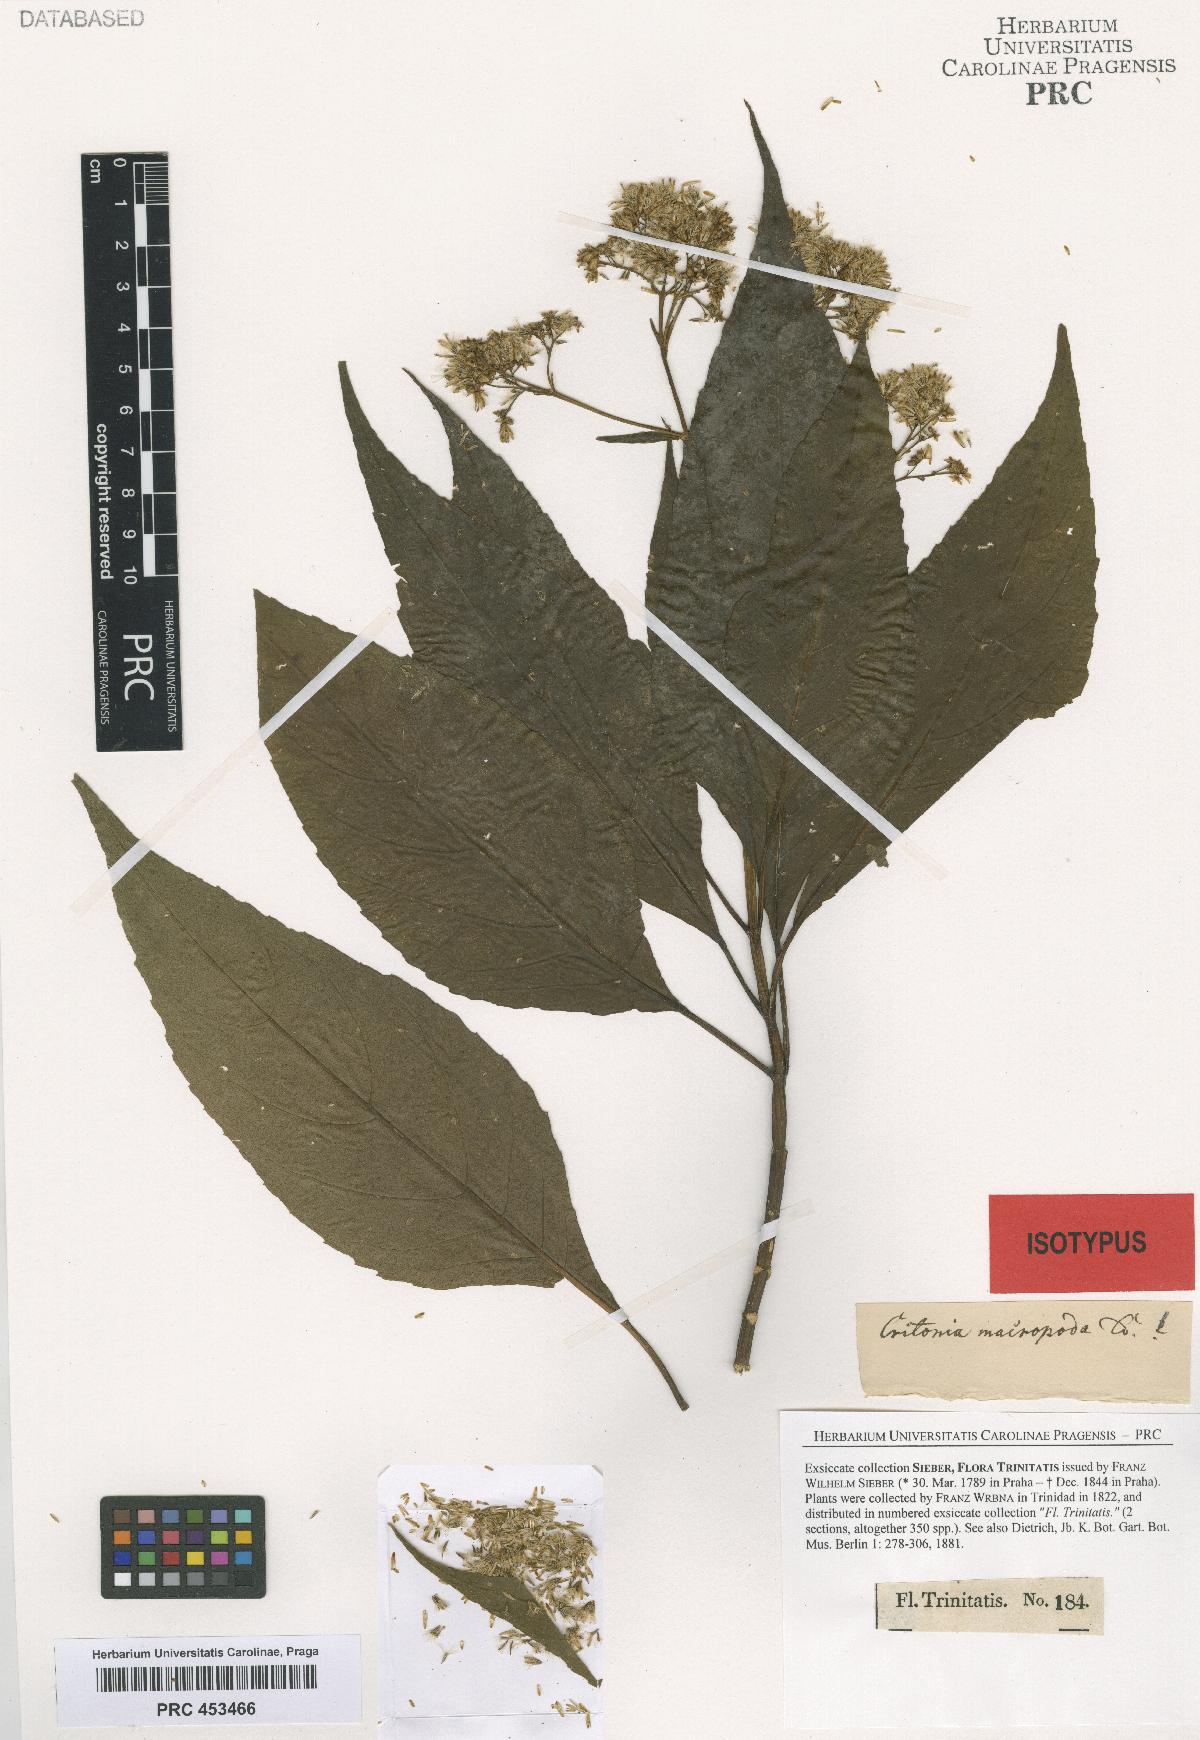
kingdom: Plantae
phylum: Tracheophyta
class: Magnoliopsida
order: Asterales
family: Asteraceae
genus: Critonia
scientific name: Critonia macropoda
